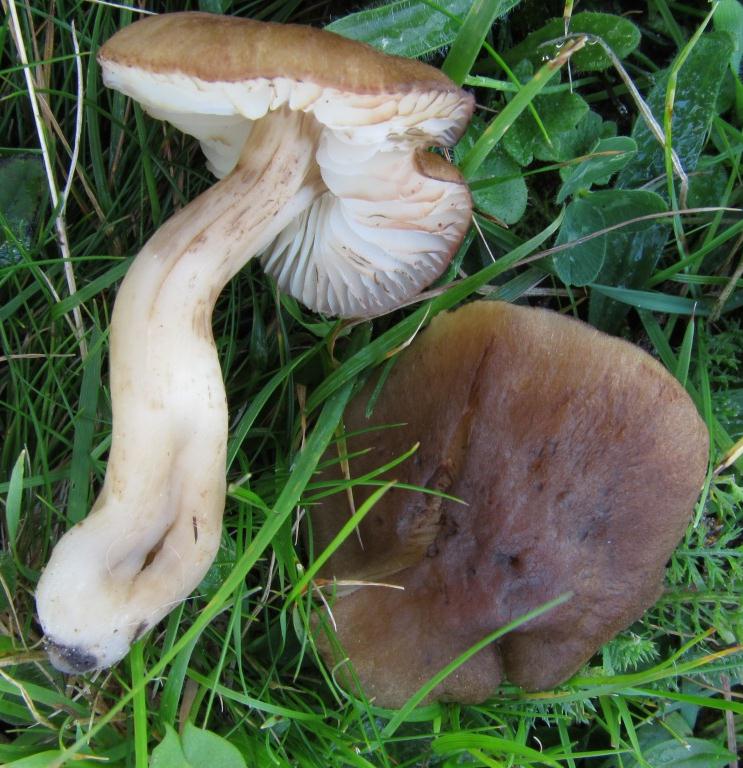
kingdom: Fungi
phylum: Basidiomycota
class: Agaricomycetes
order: Agaricales
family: Hygrophoraceae
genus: Hygrocybe
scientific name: Hygrocybe ingrata
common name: Jensens vokshat
